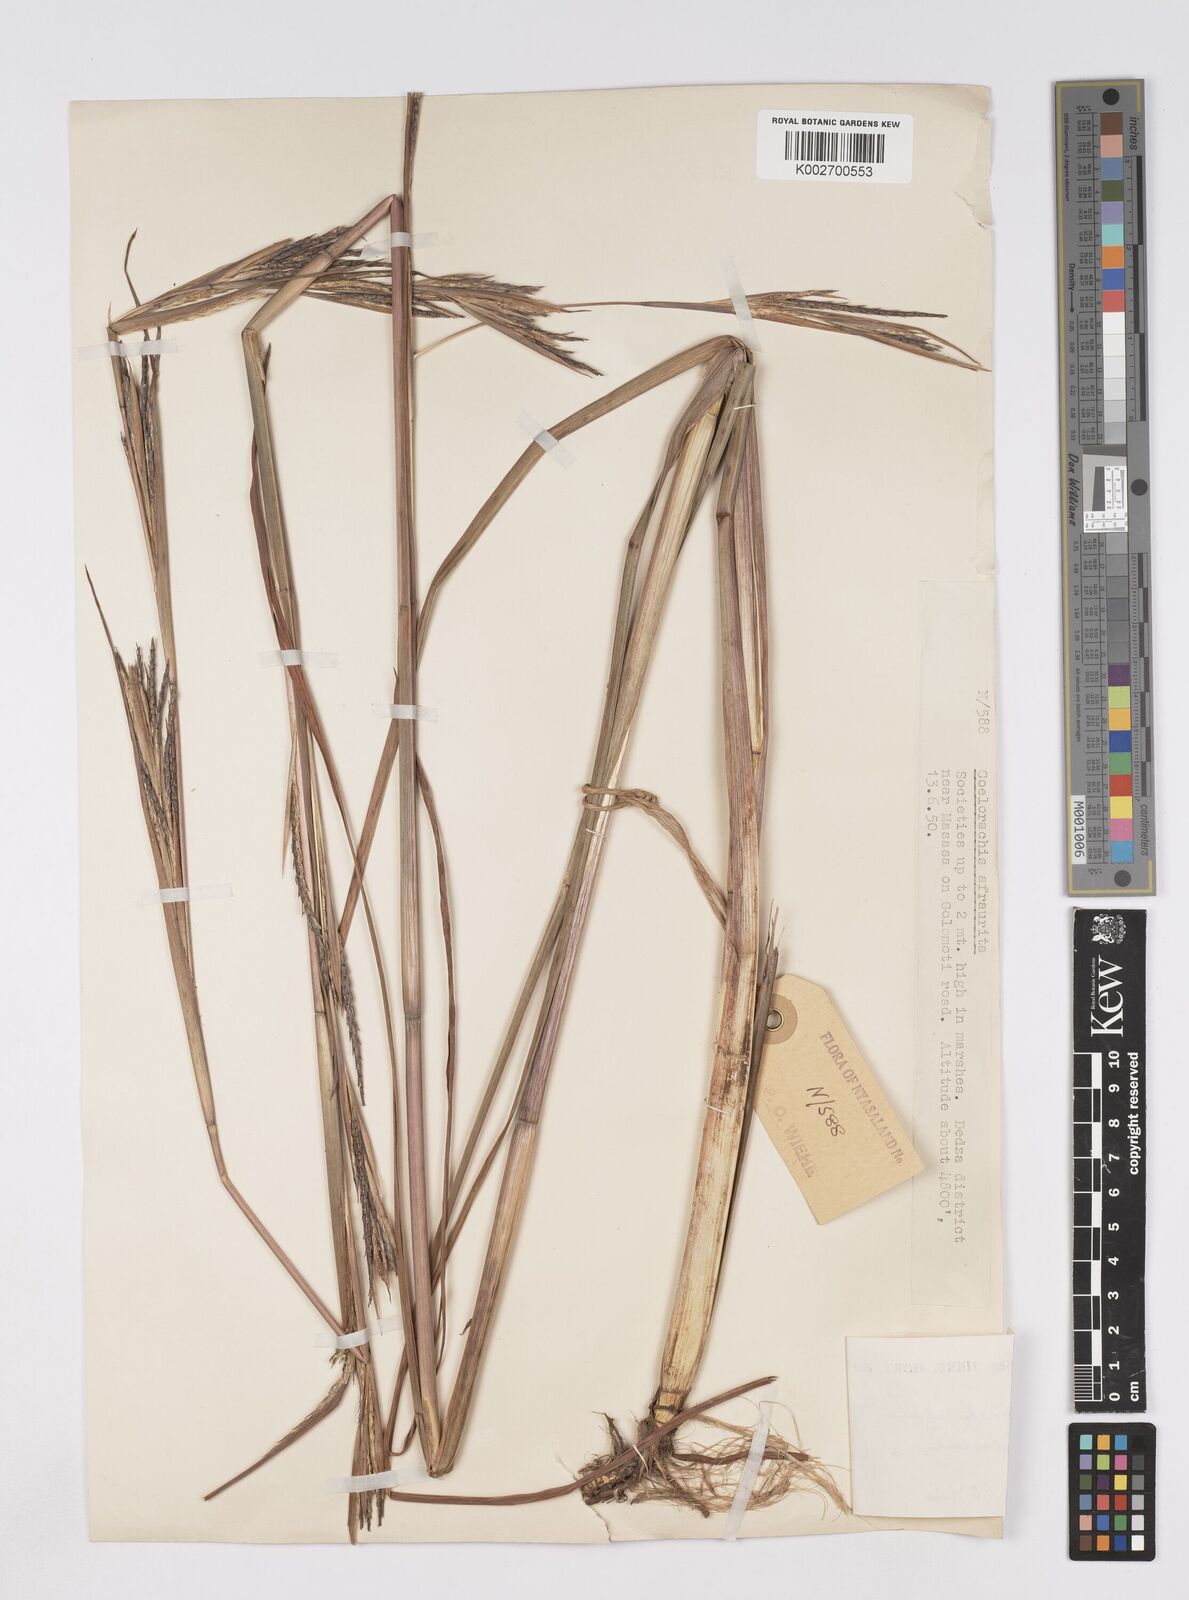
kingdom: Plantae
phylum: Tracheophyta
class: Liliopsida
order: Poales
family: Poaceae
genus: Rottboellia
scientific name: Rottboellia afraurita
